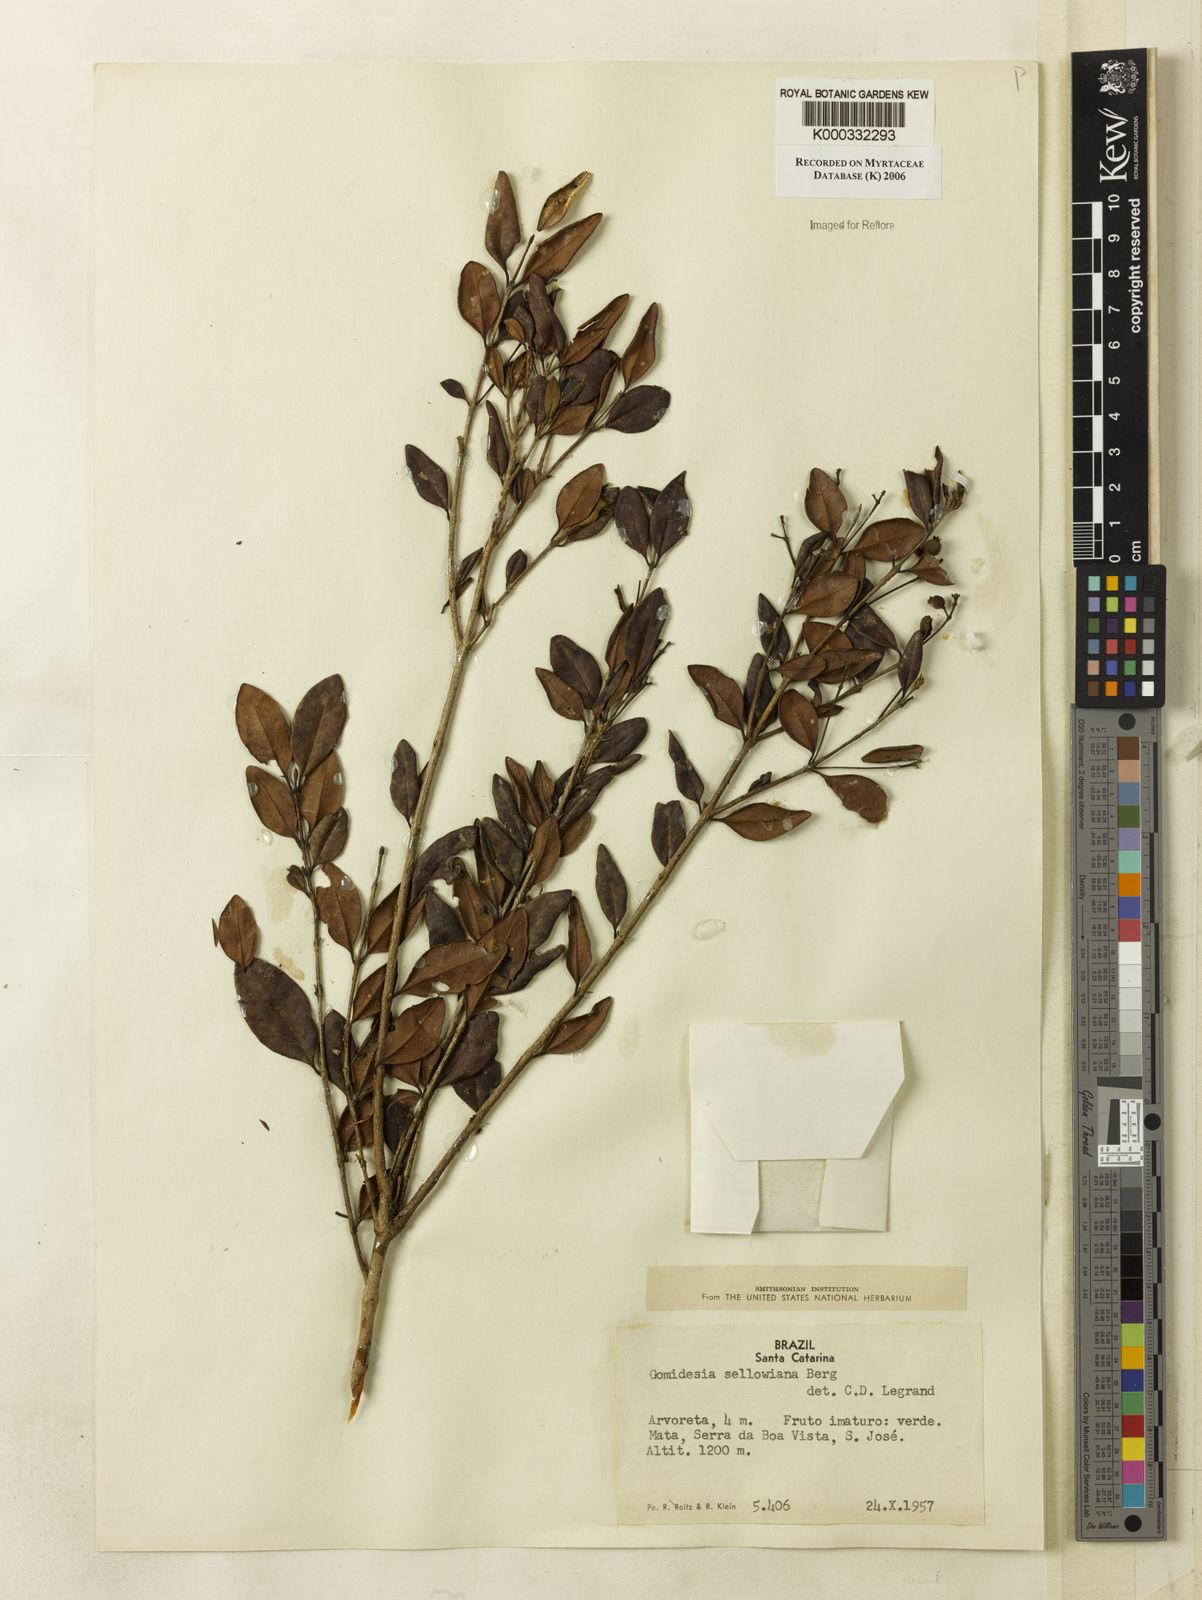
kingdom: Plantae
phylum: Tracheophyta
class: Magnoliopsida
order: Myrtales
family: Myrtaceae
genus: Myrcia
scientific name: Myrcia hartwegiana
